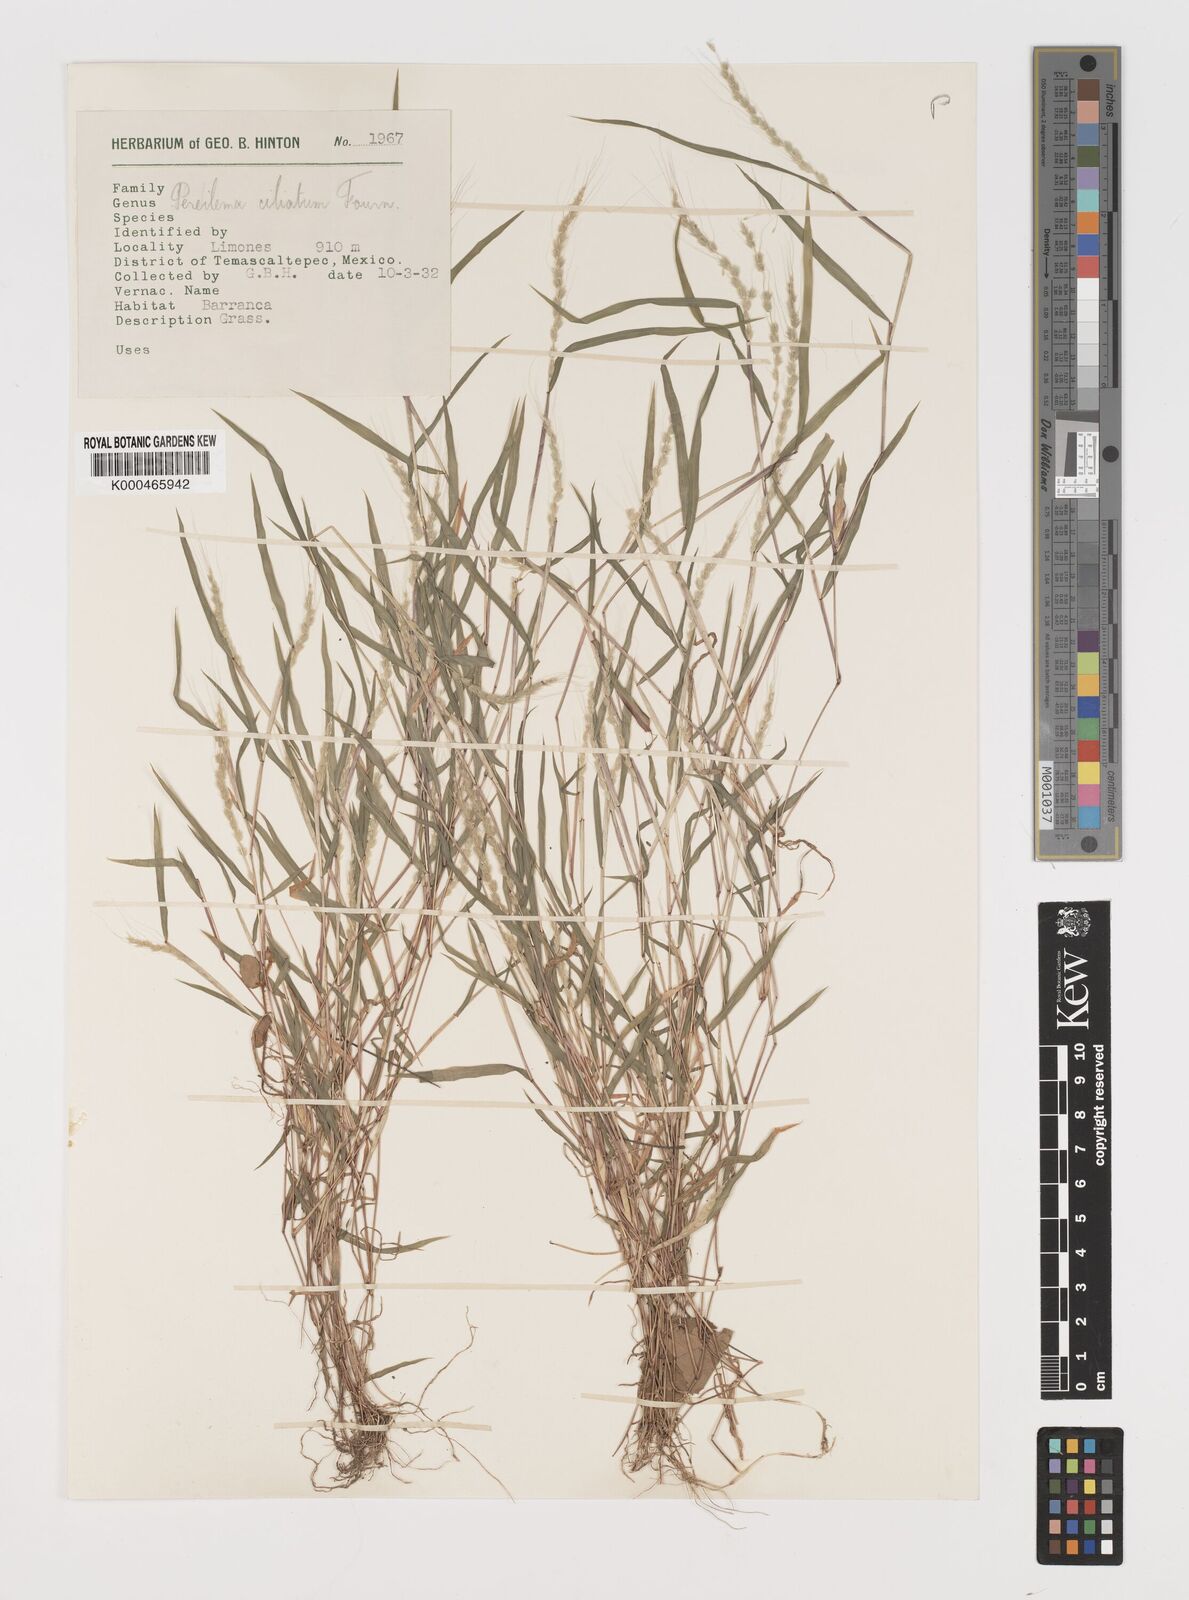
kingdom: Plantae
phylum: Tracheophyta
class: Liliopsida
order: Poales
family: Poaceae
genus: Muhlenbergia
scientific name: Muhlenbergia plumiseta
